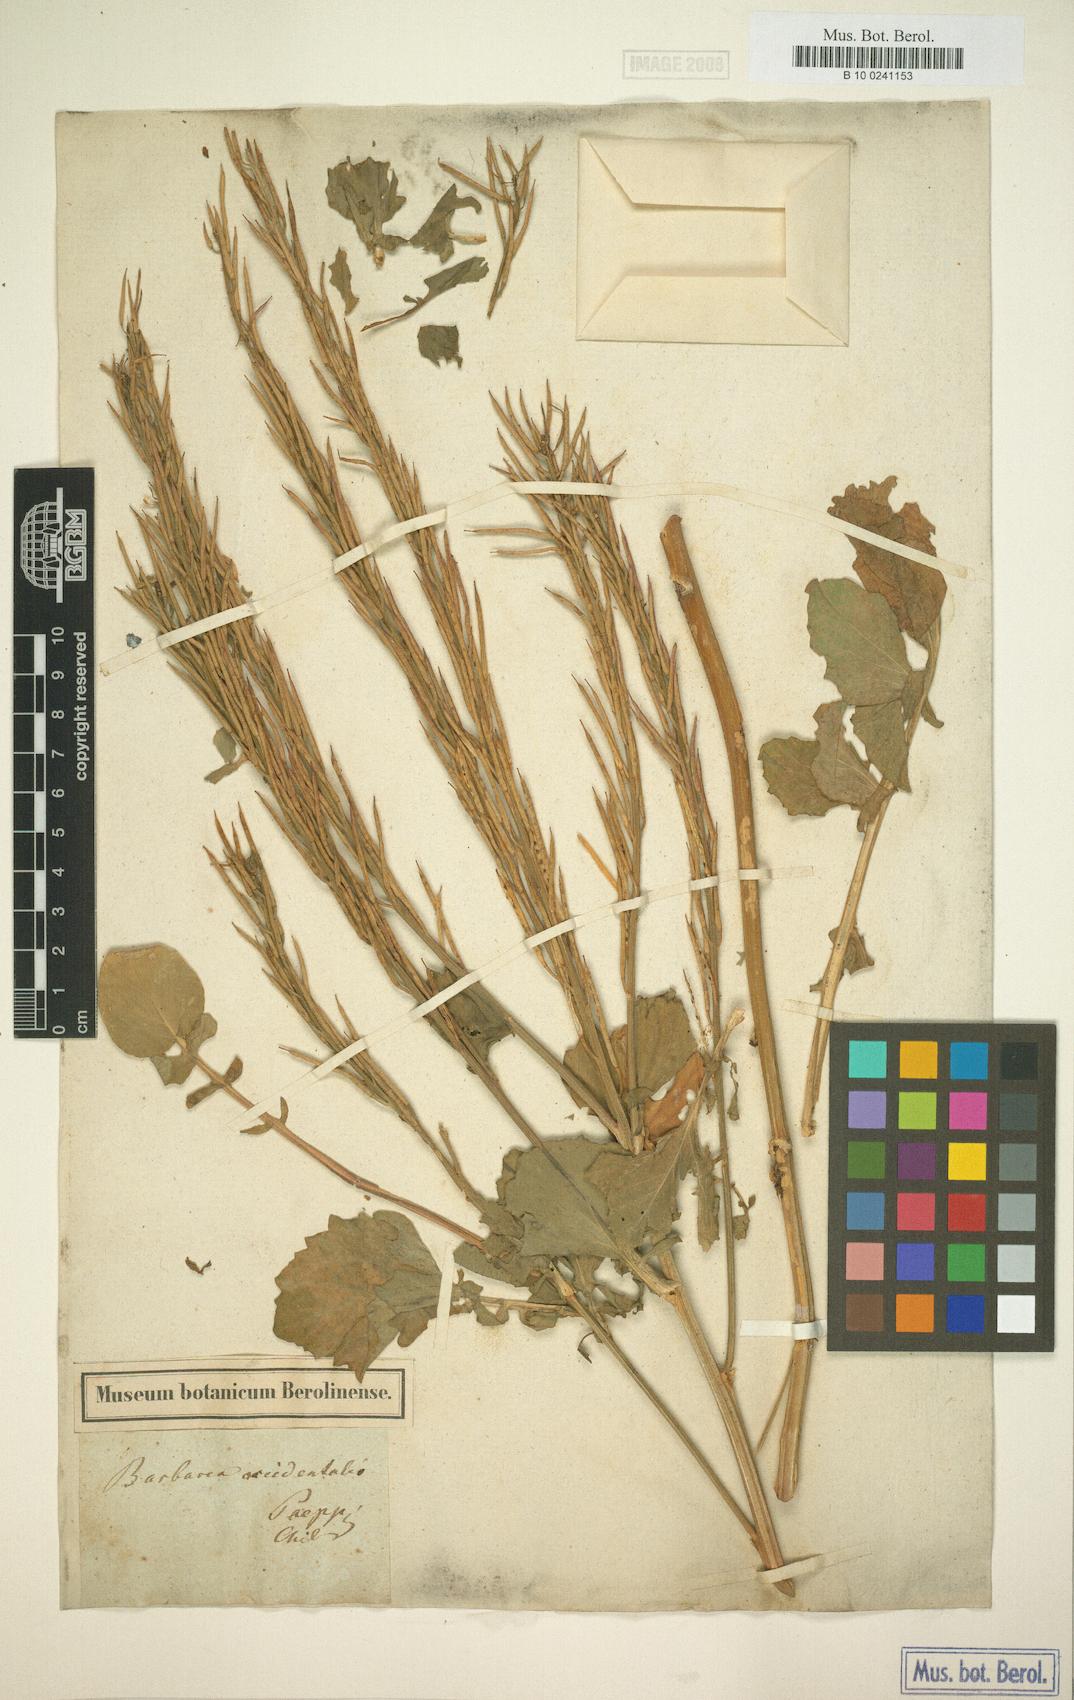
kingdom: Plantae
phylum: Tracheophyta
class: Magnoliopsida
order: Brassicales
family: Brassicaceae
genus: Barbarea
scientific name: Barbarea
